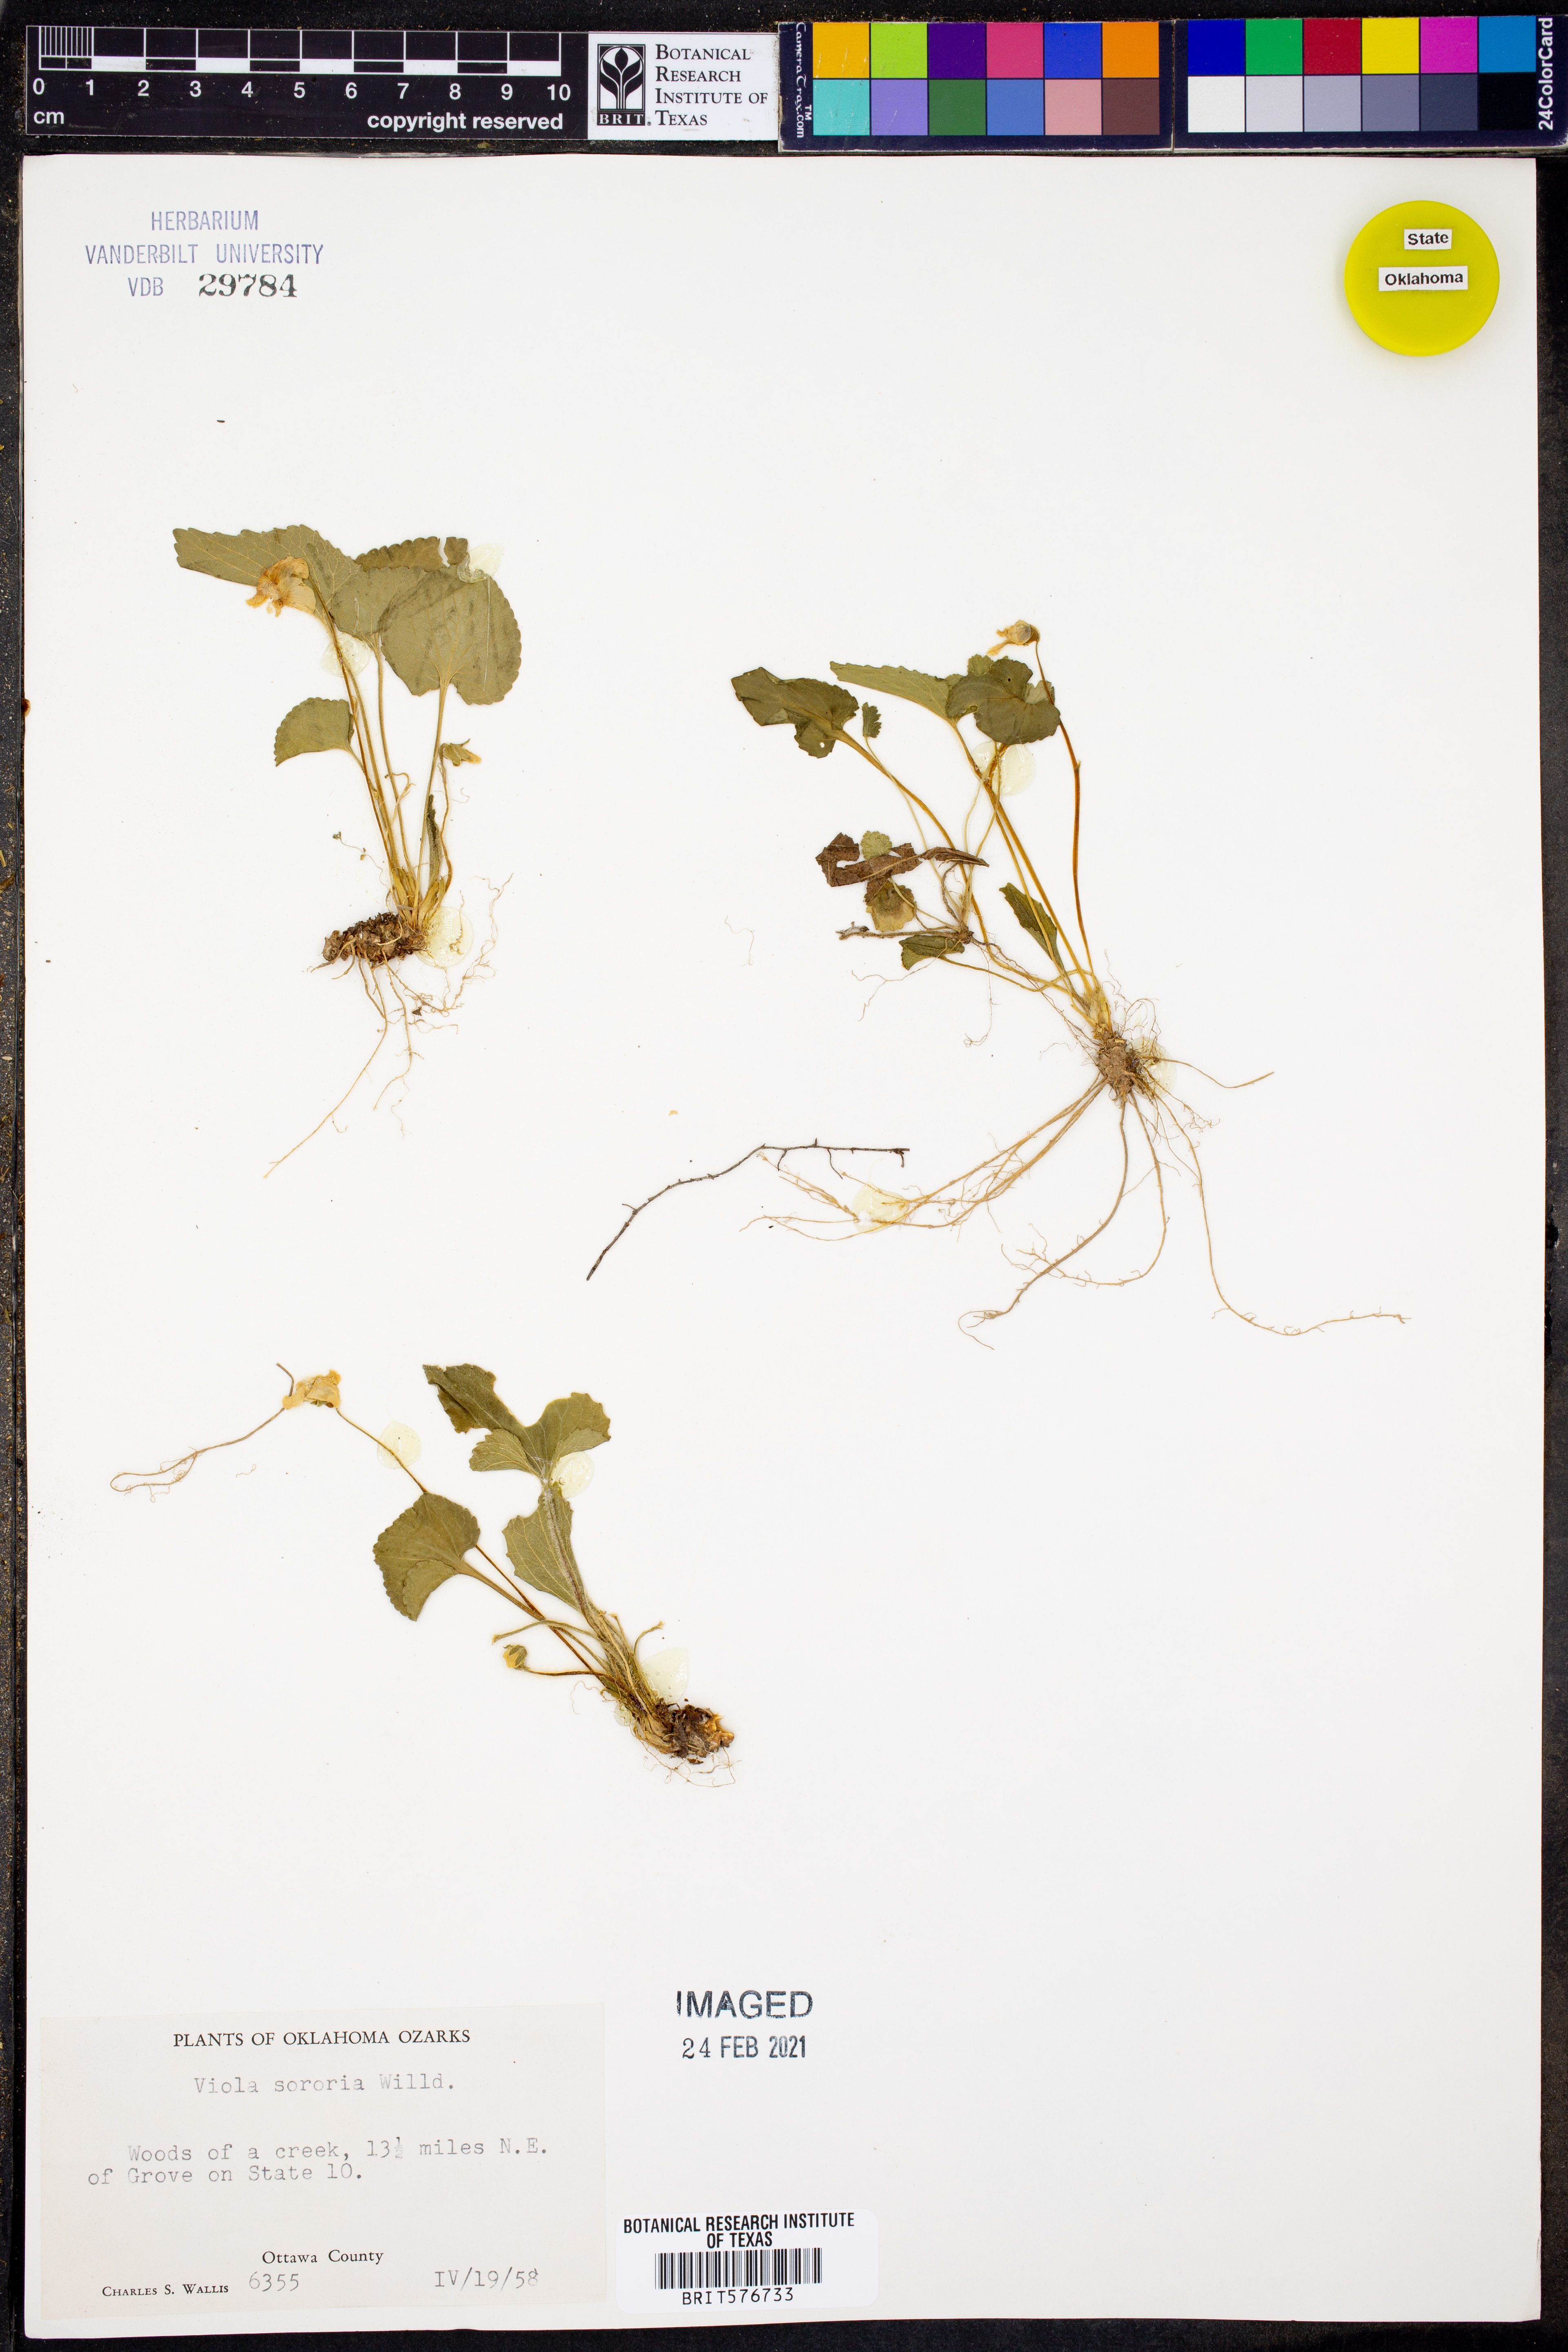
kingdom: Plantae
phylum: Tracheophyta
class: Magnoliopsida
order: Malpighiales
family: Violaceae
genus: Viola
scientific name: Viola sororia
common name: Dooryard violet
